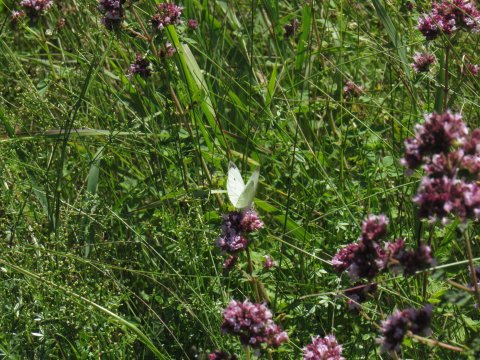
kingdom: Animalia
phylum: Arthropoda
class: Insecta
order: Lepidoptera
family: Pieridae
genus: Pieris
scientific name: Pieris rapae
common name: Cabbage White
